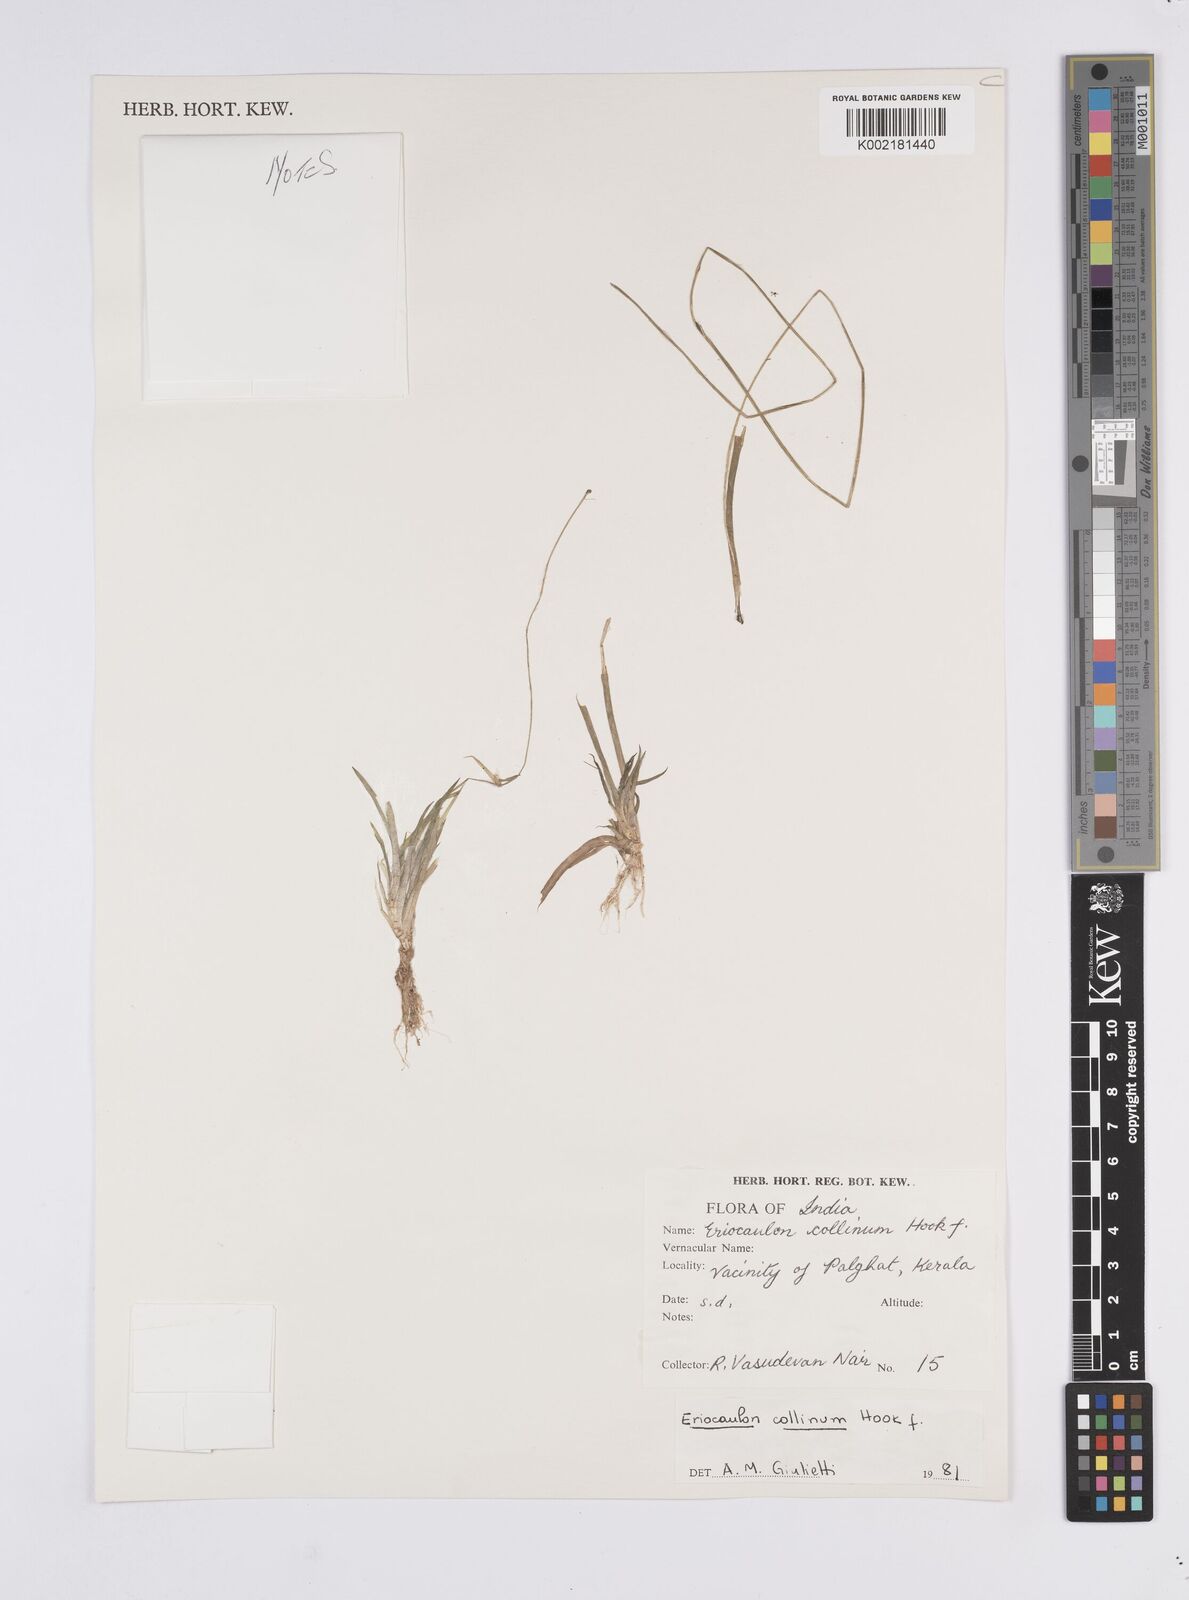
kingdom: Plantae
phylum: Tracheophyta
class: Liliopsida
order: Poales
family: Eriocaulaceae
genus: Eriocaulon
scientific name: Eriocaulon odoratum
